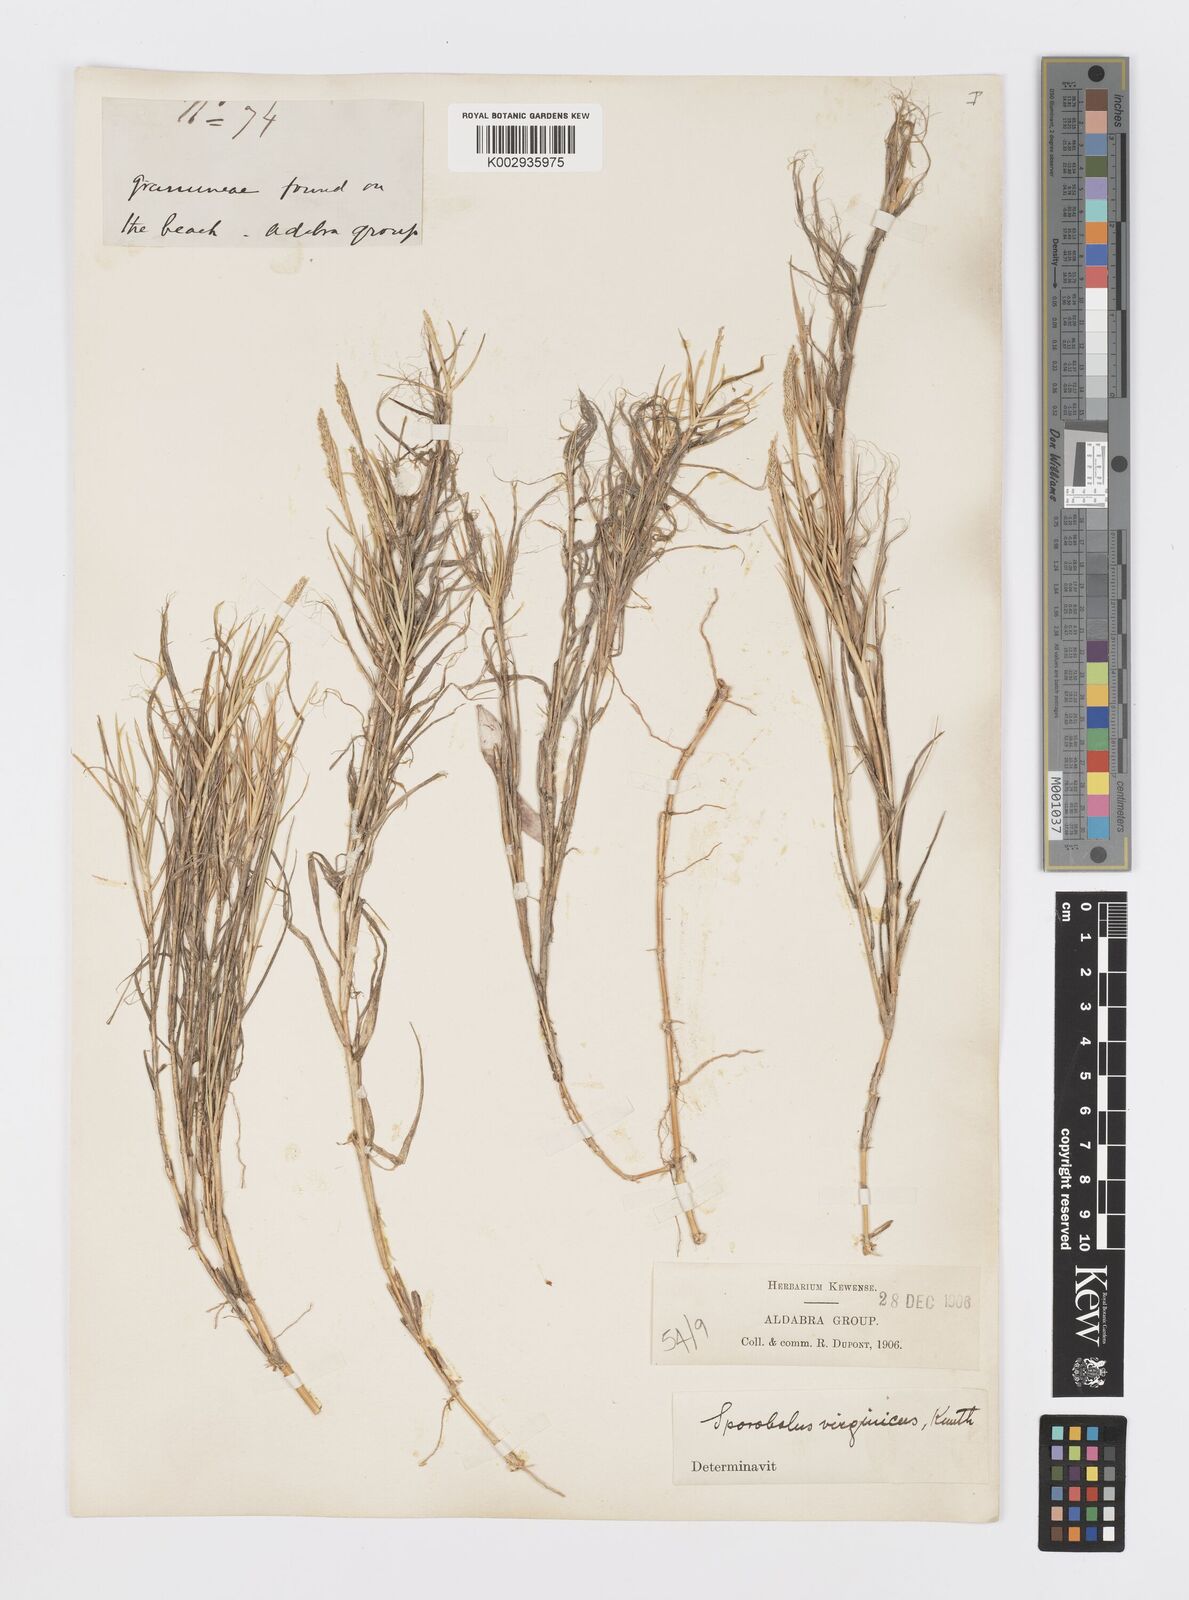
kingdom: Plantae
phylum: Tracheophyta
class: Liliopsida
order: Poales
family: Poaceae
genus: Sporobolus
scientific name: Sporobolus virginicus
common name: Beach dropseed
